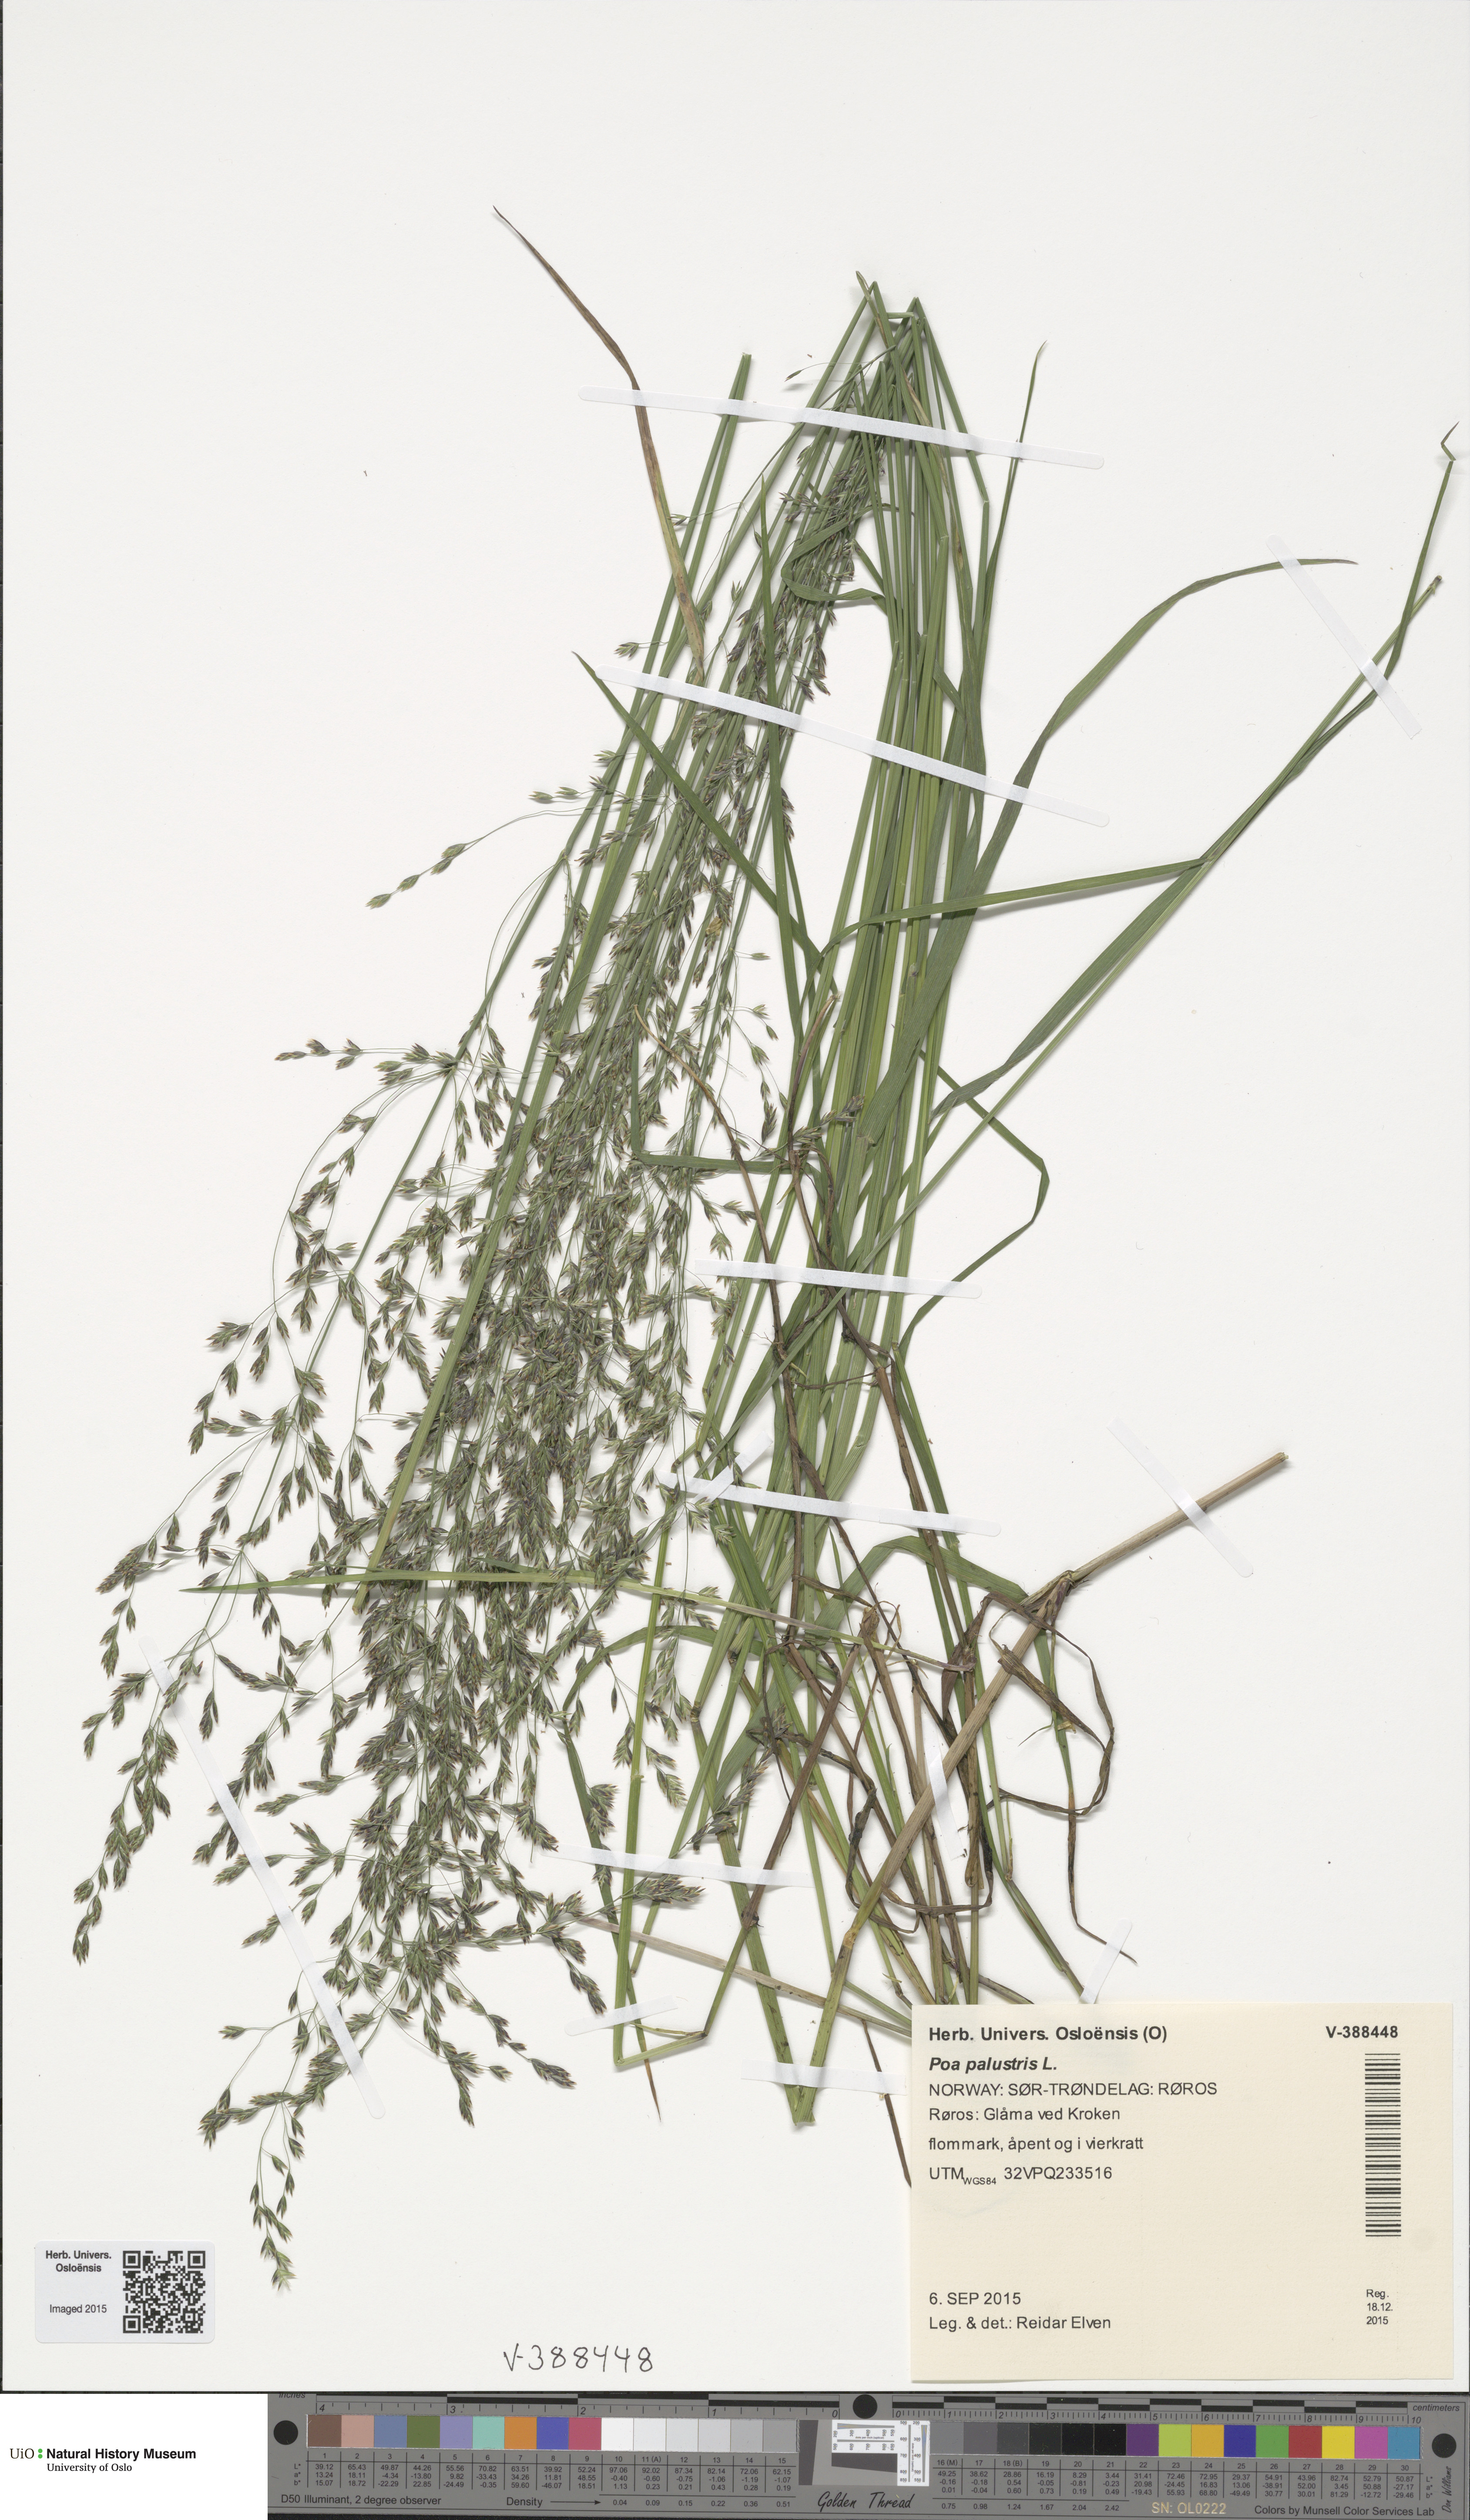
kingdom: Plantae
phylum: Tracheophyta
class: Liliopsida
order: Poales
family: Poaceae
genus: Poa
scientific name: Poa palustris
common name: Swamp meadow-grass
